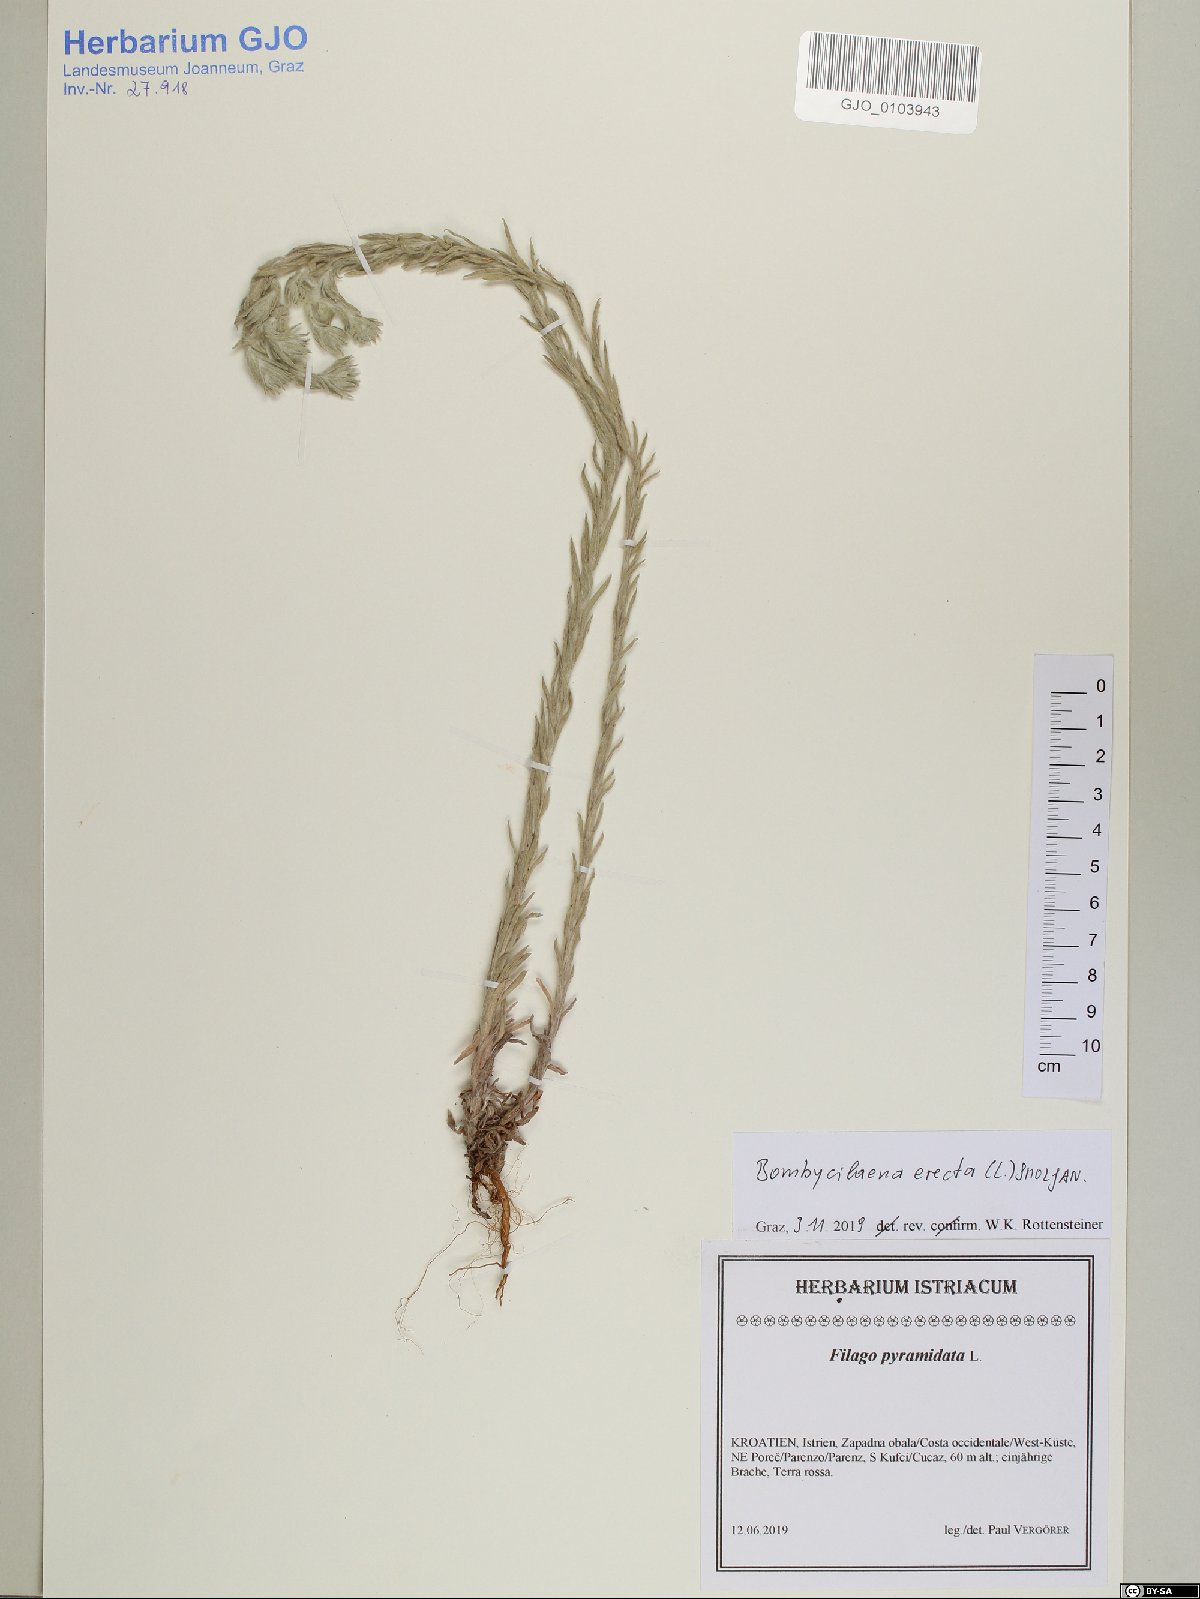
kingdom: Plantae
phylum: Tracheophyta
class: Magnoliopsida
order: Asterales
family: Asteraceae
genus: Bombycilaena
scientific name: Bombycilaena erecta
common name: Micropus
